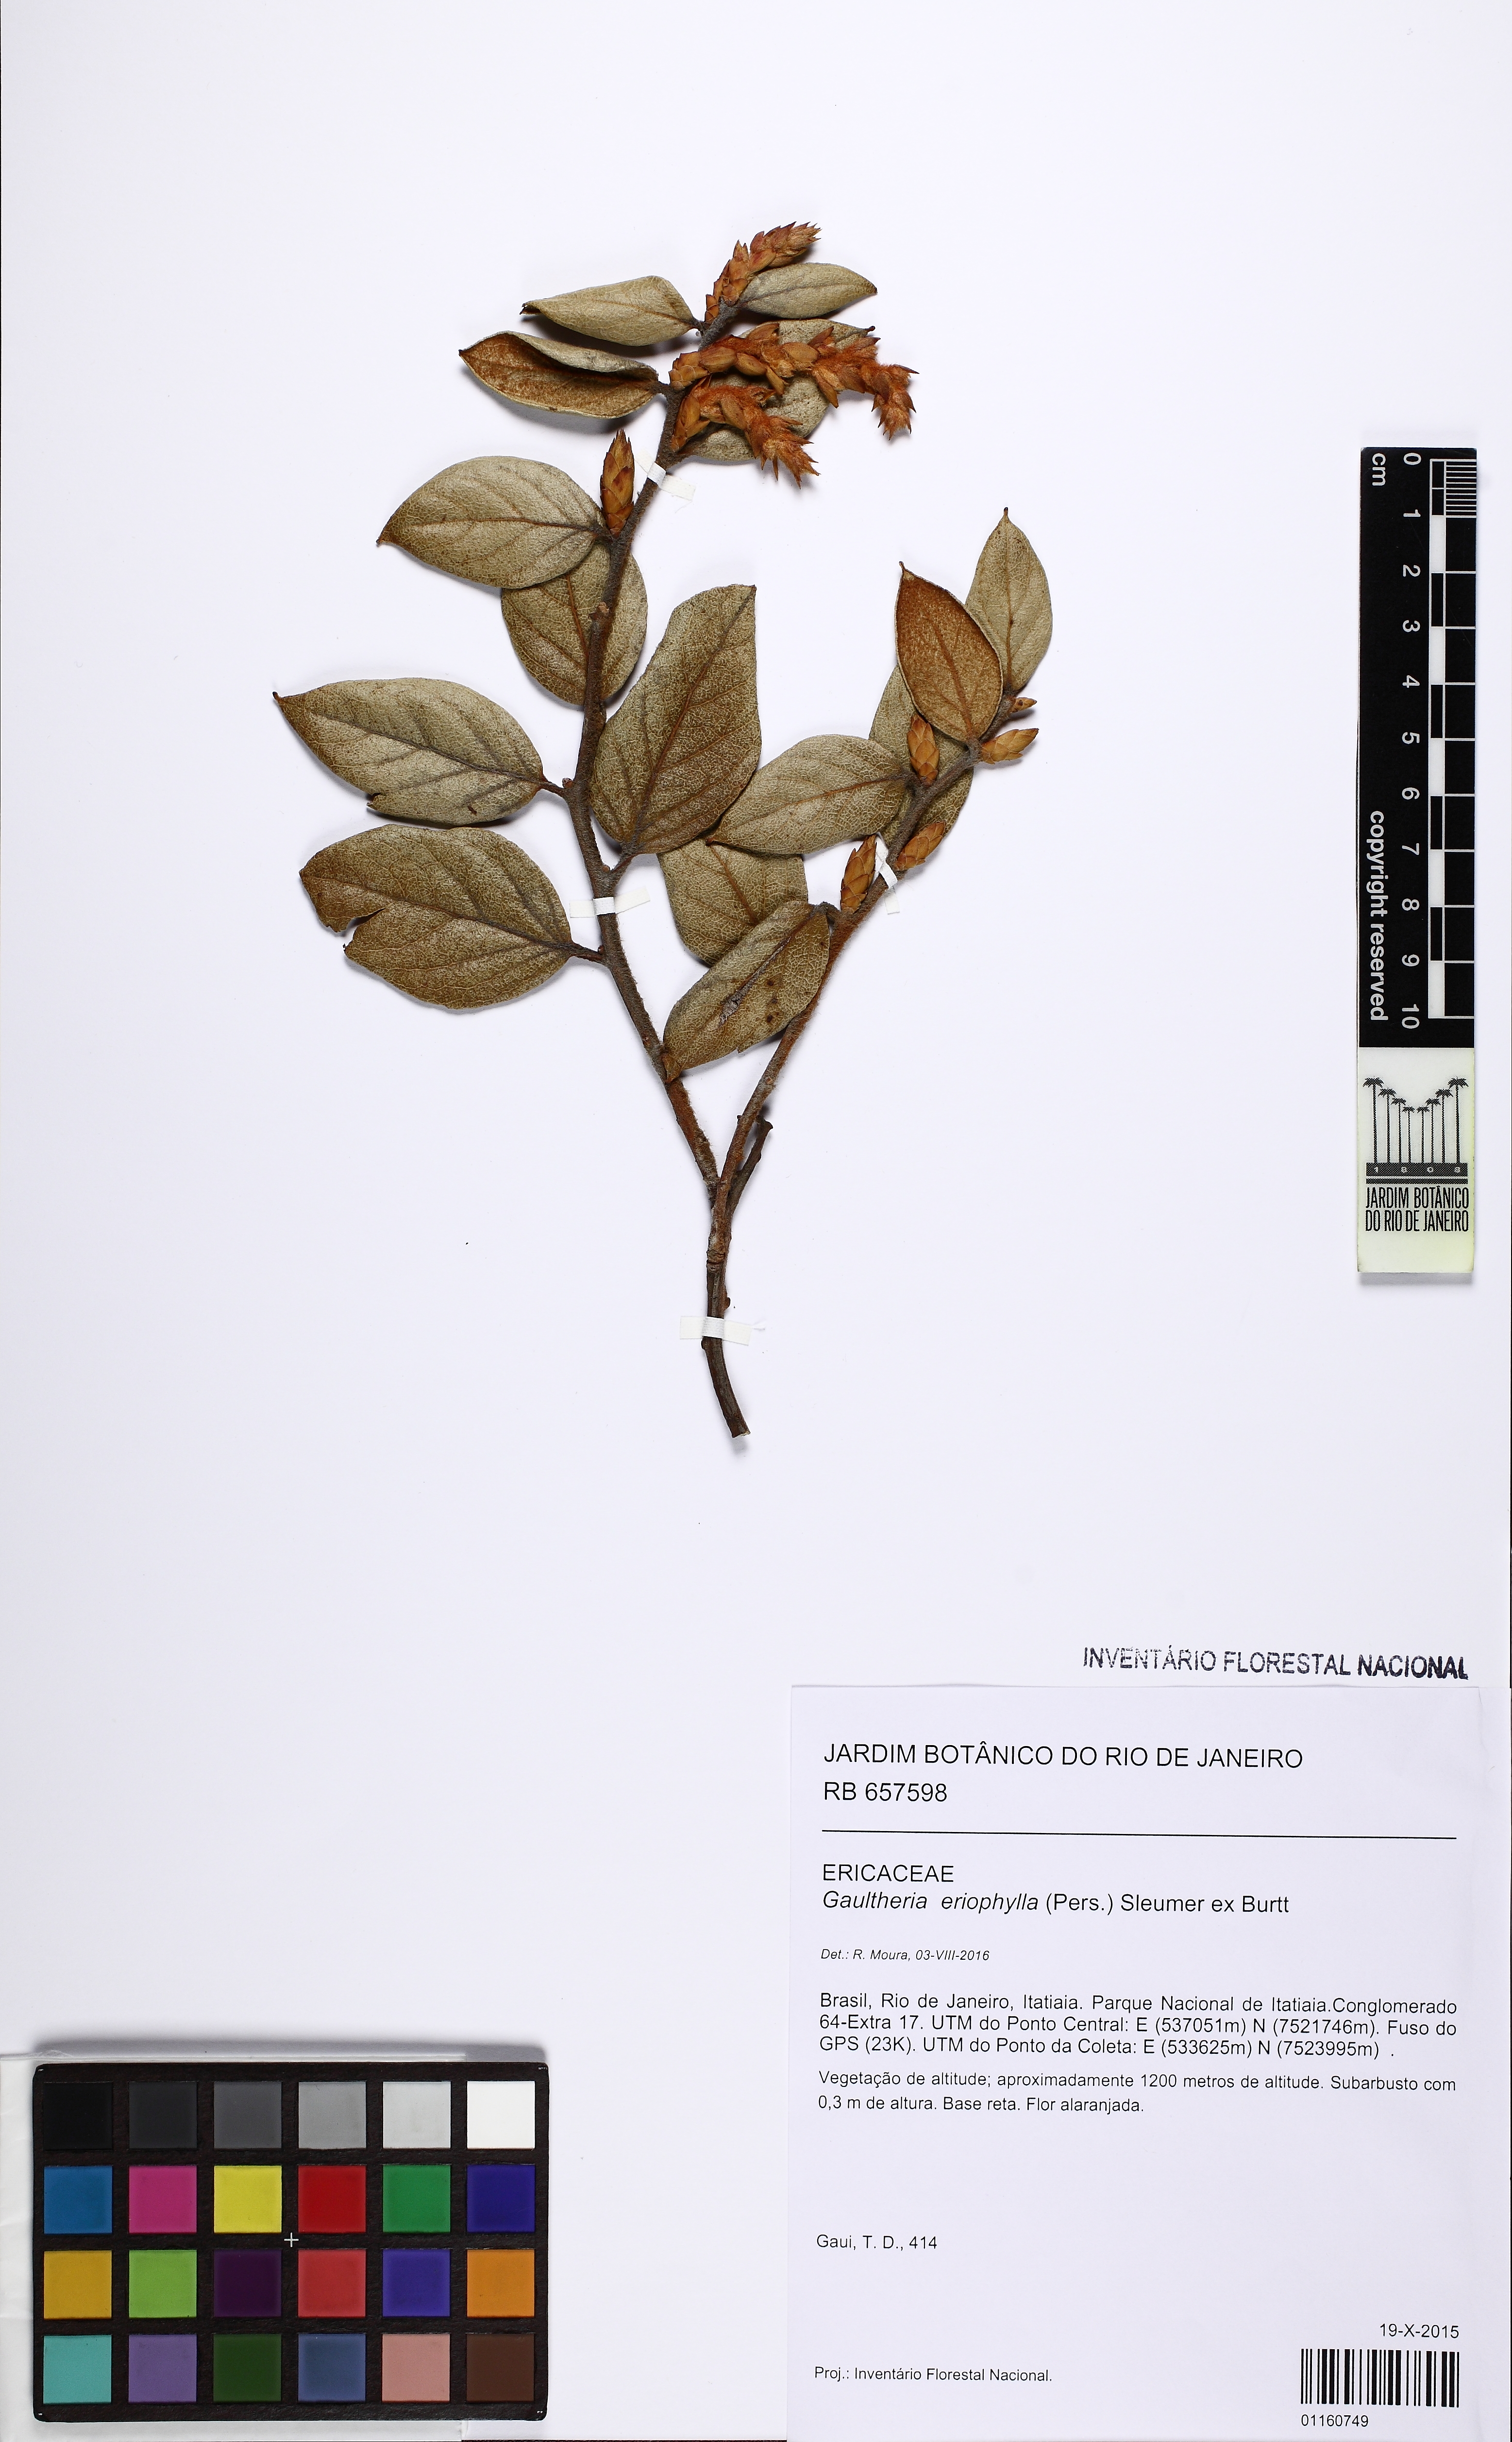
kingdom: Plantae
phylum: Tracheophyta
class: Magnoliopsida
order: Ericales
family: Ericaceae
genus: Gaultheria
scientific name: Gaultheria eriophylla
